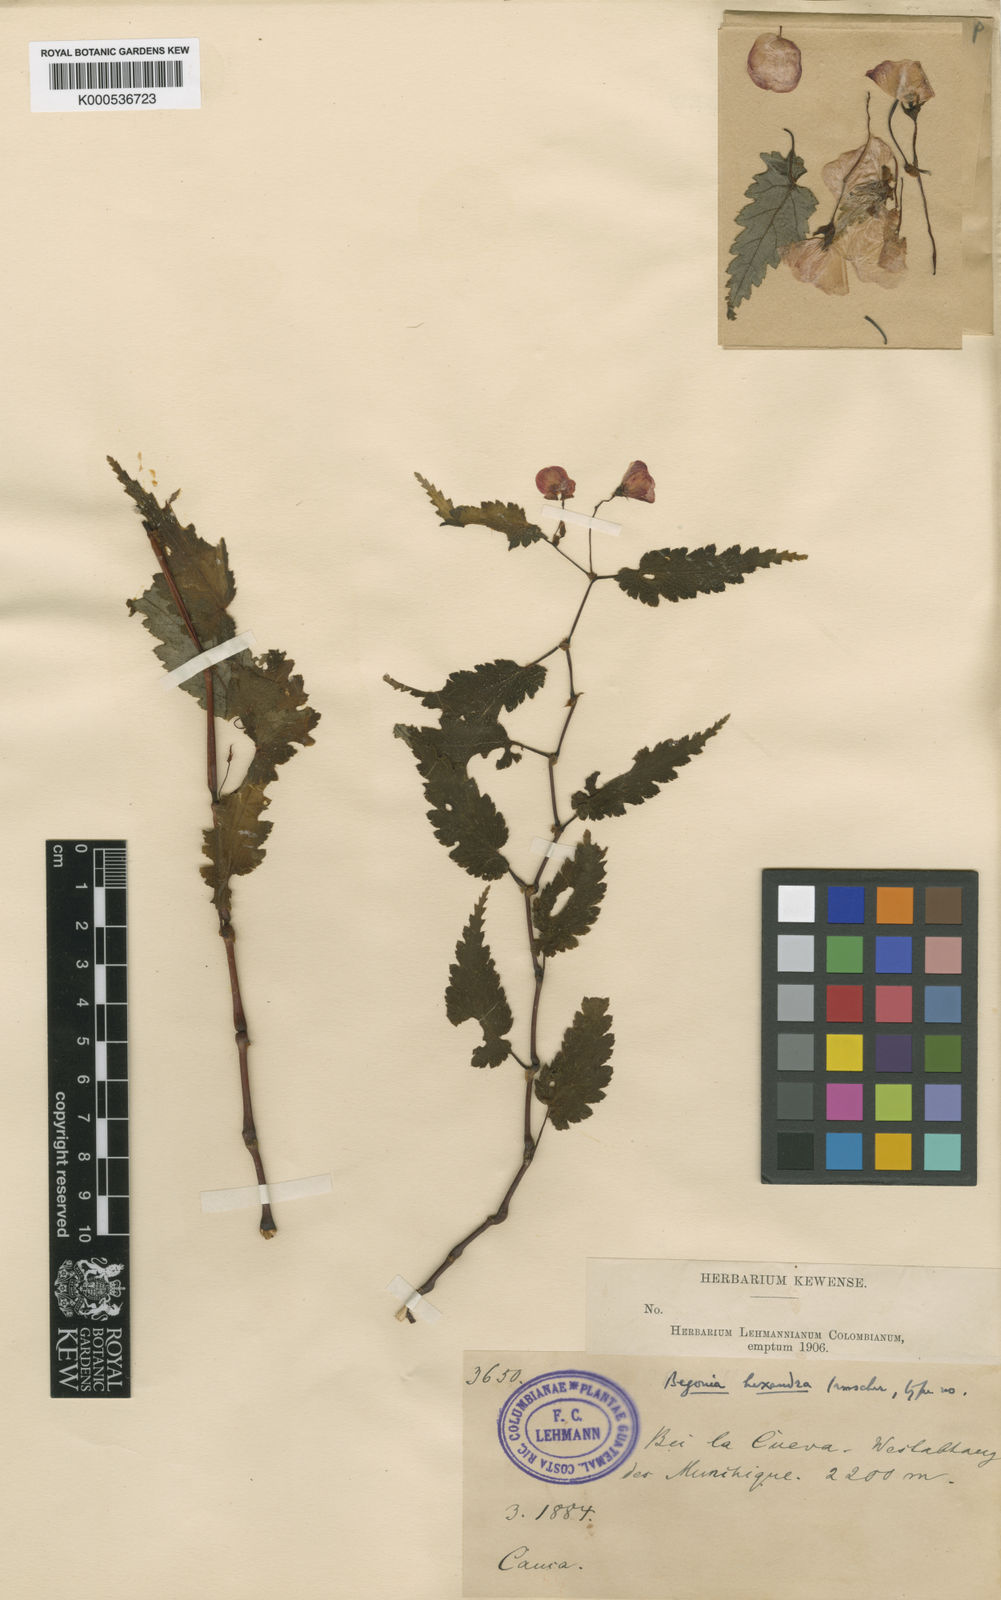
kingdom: Plantae
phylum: Tracheophyta
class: Magnoliopsida
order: Cucurbitales
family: Begoniaceae
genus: Begonia
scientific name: Begonia hexandra
